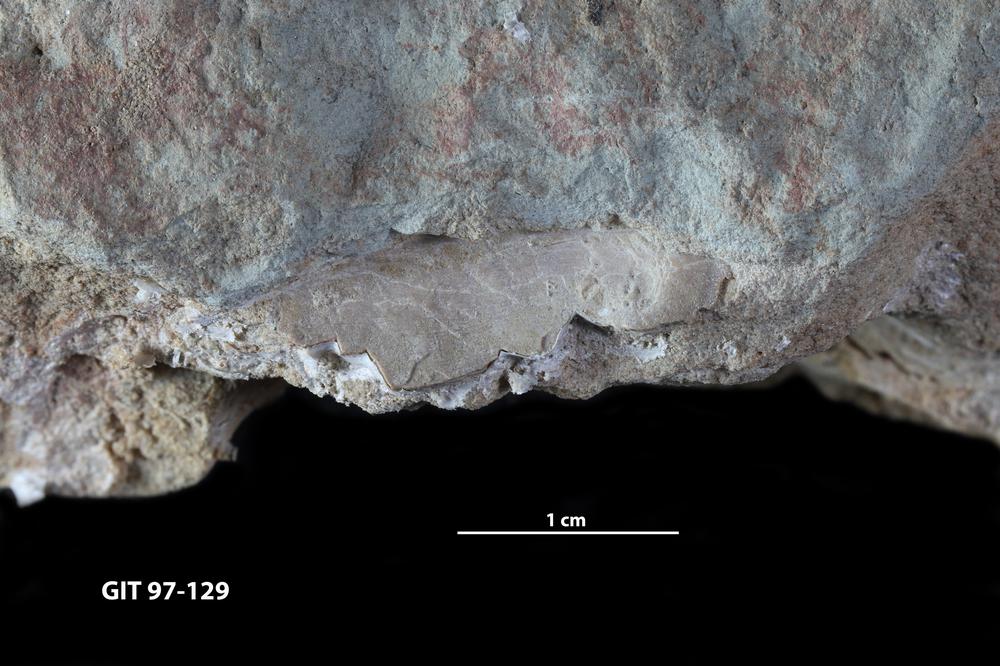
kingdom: Animalia
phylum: Chordata
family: Holonematidae
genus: Holonema
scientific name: Holonema
